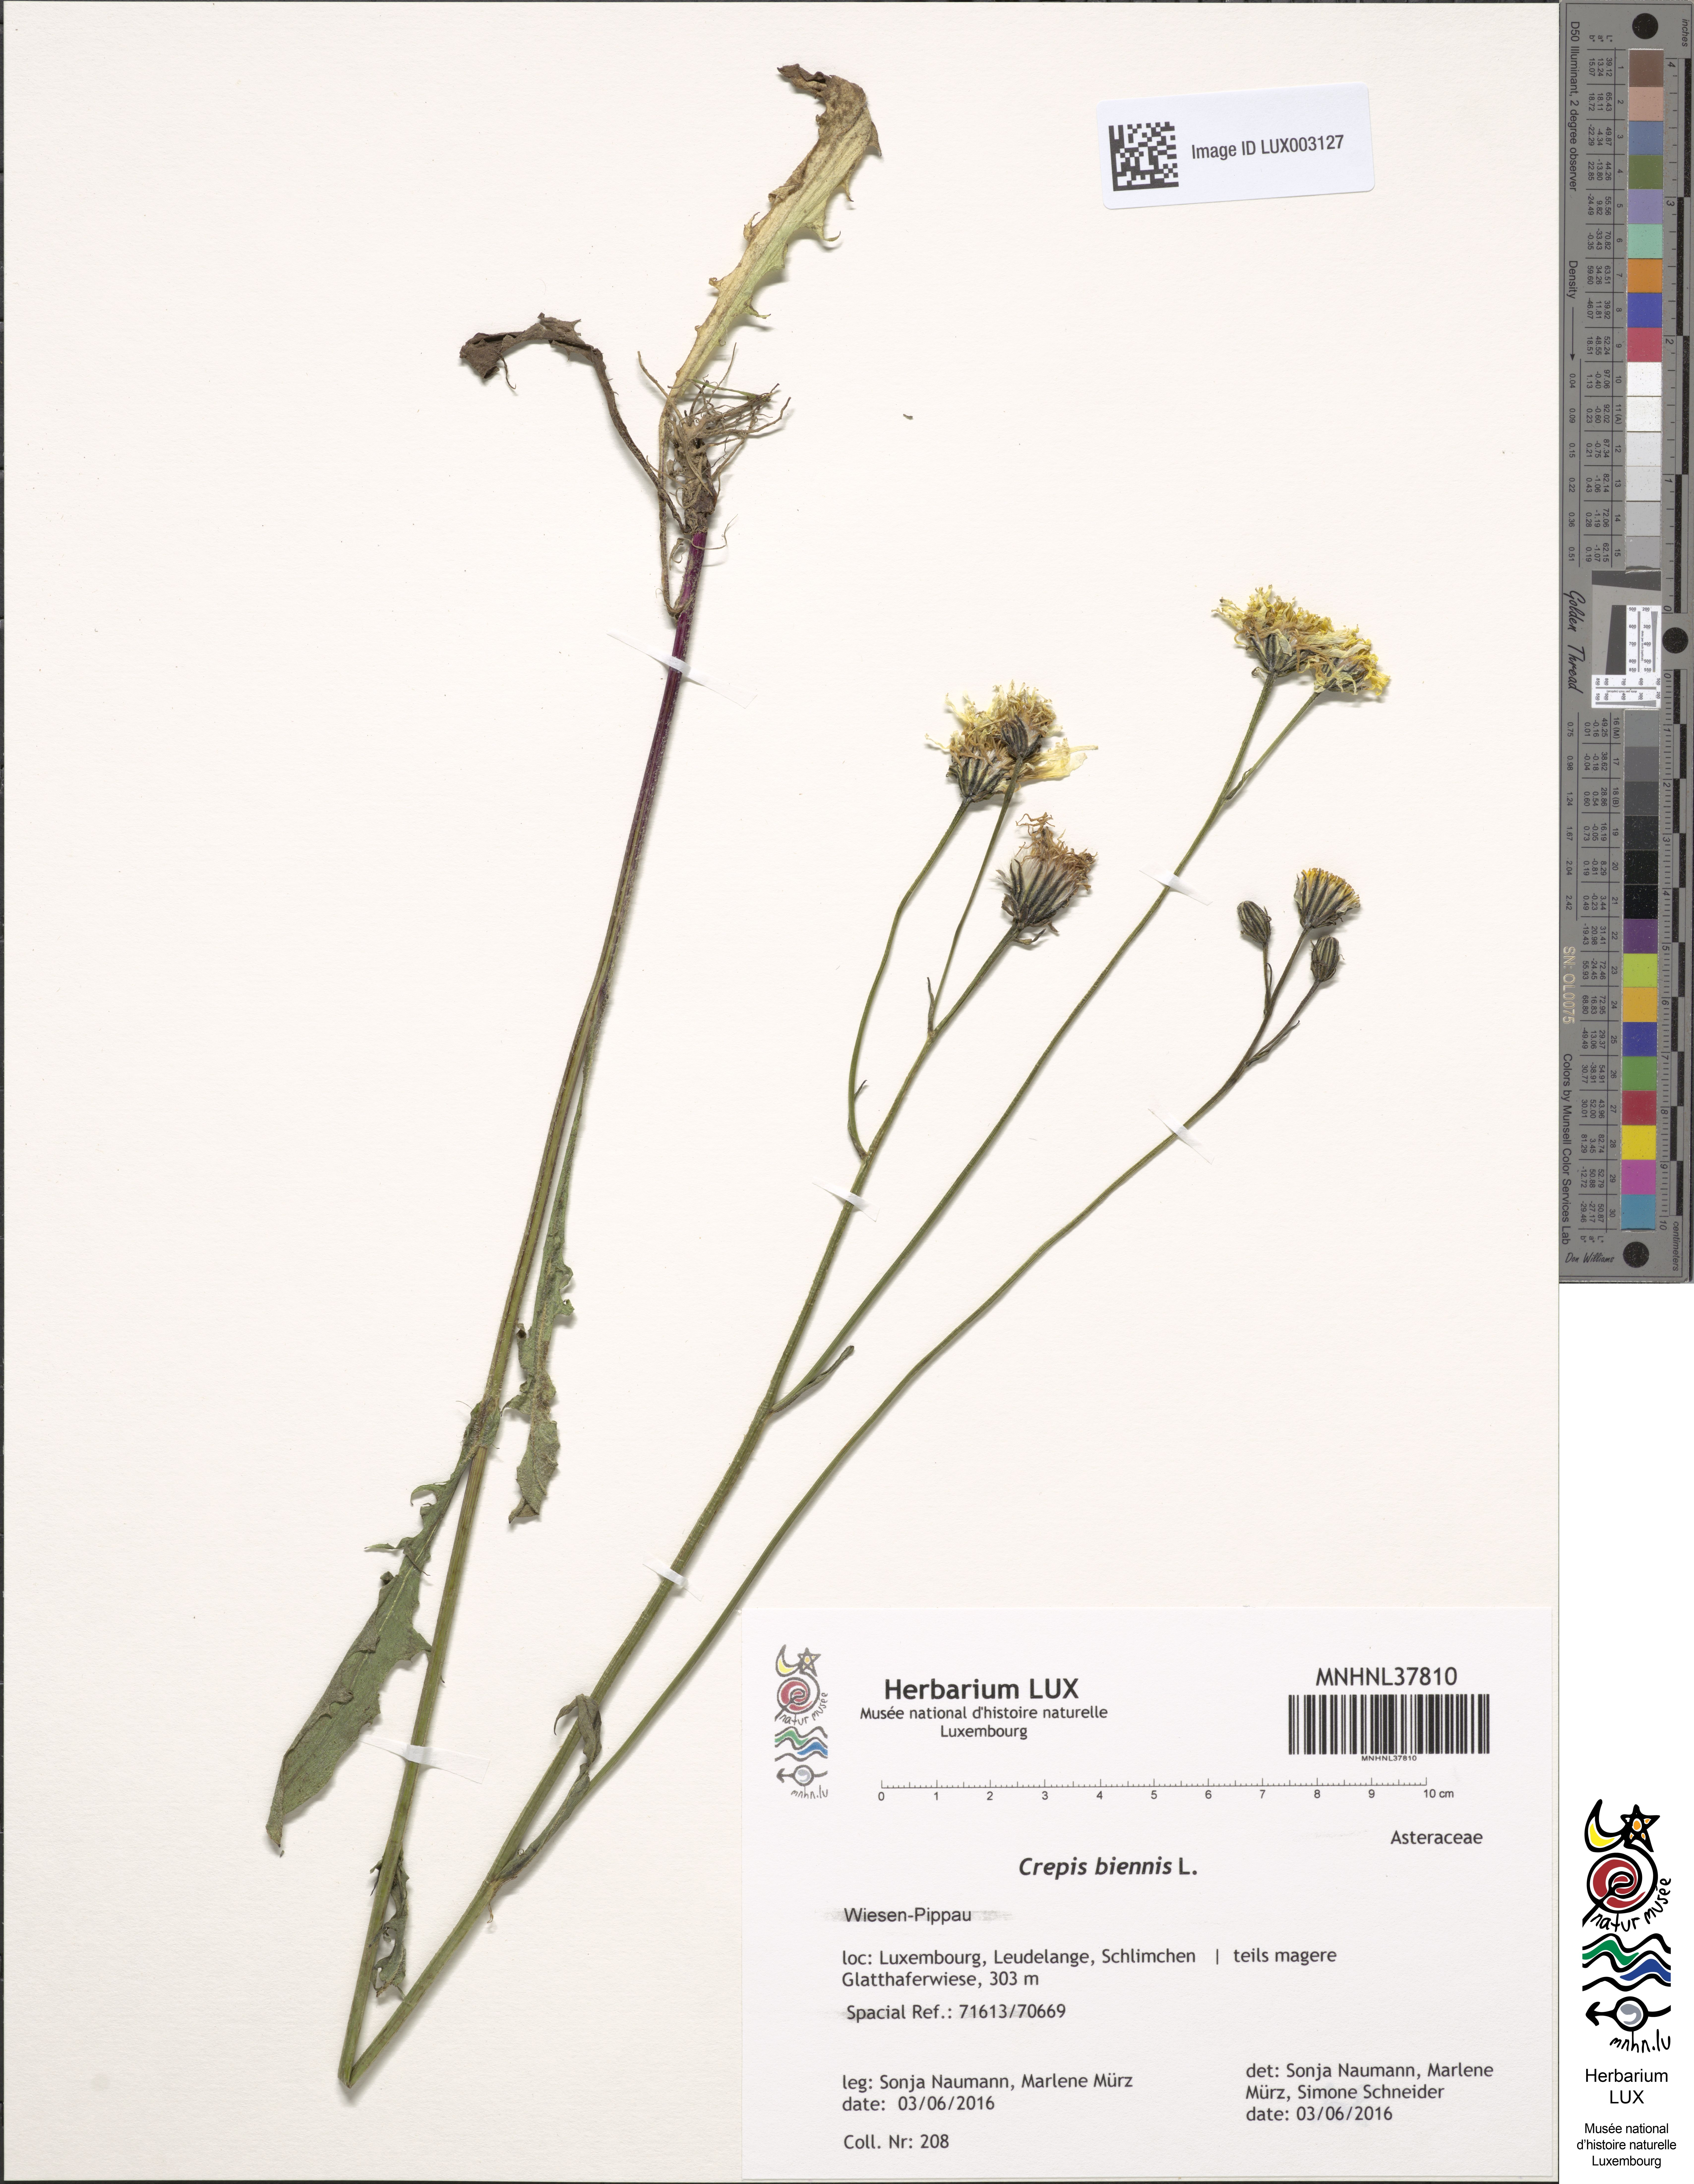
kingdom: Plantae
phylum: Tracheophyta
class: Magnoliopsida
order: Asterales
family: Asteraceae
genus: Crepis
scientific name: Crepis biennis
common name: Rough hawk's-beard
